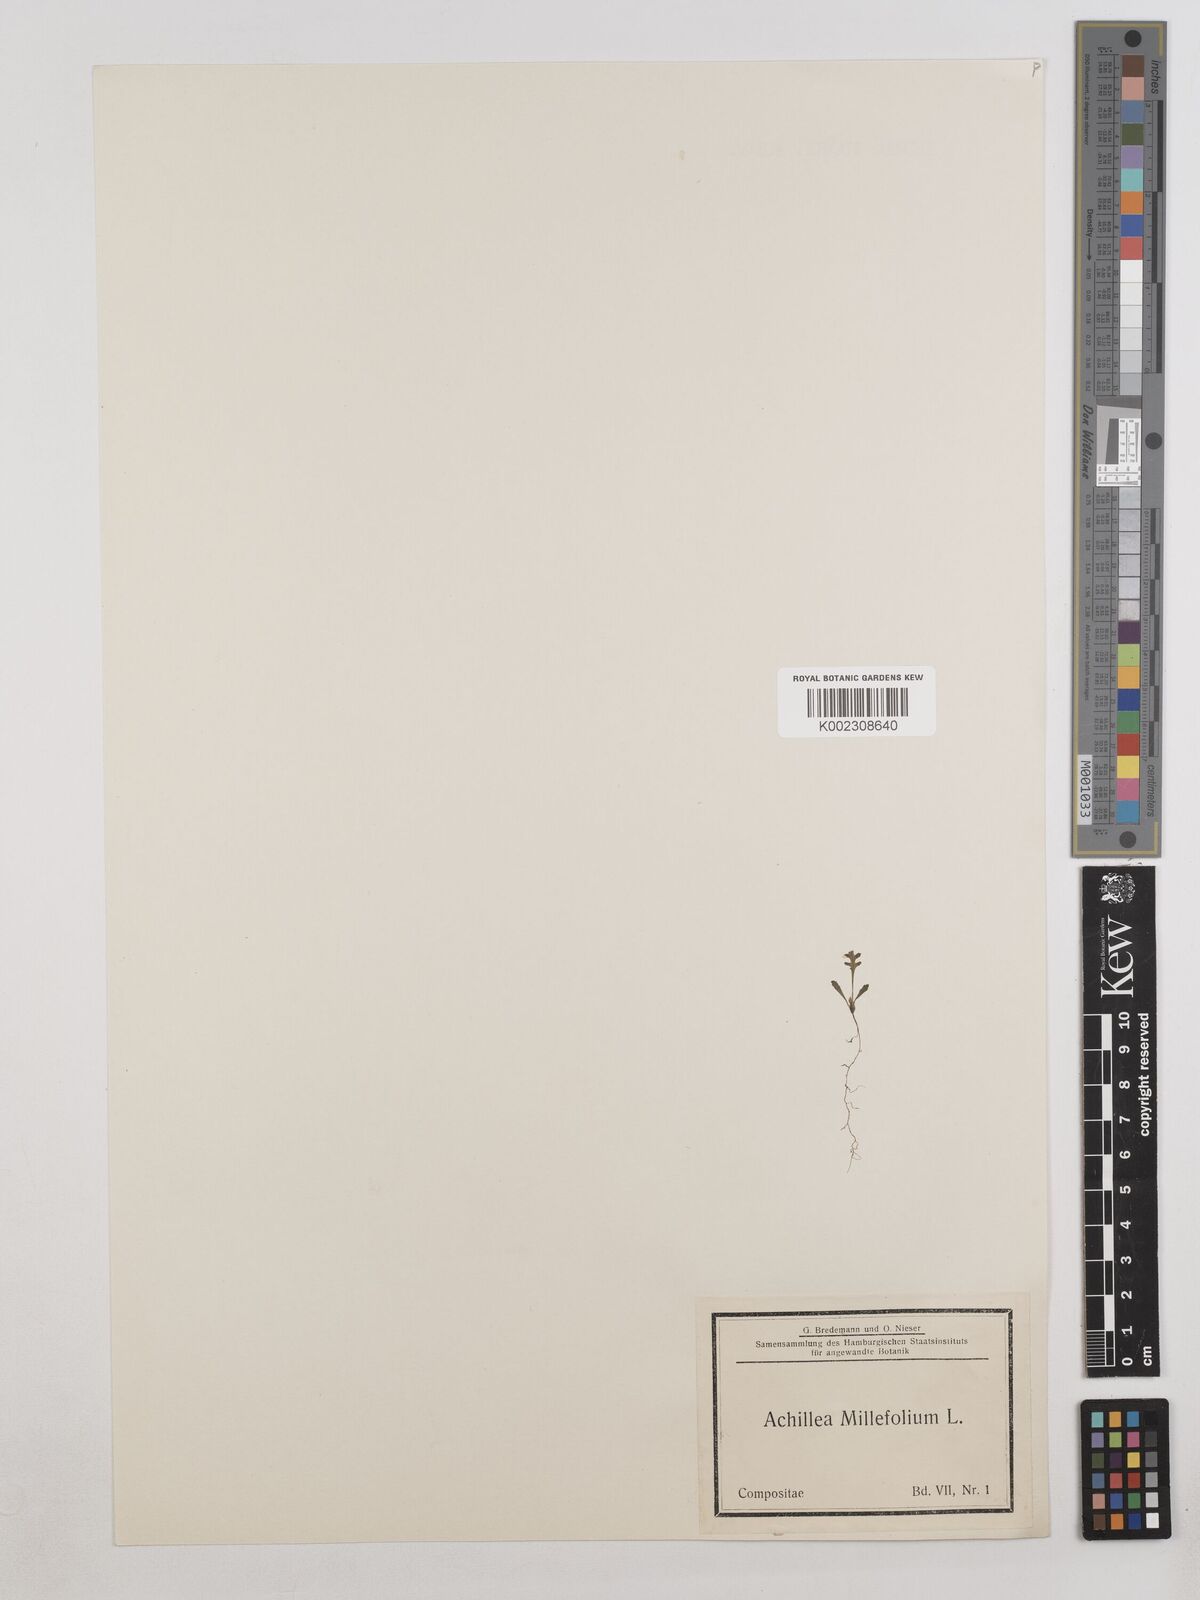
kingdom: Plantae
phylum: Tracheophyta
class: Magnoliopsida
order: Asterales
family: Asteraceae
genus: Achillea
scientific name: Achillea millefolium
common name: Yarrow
